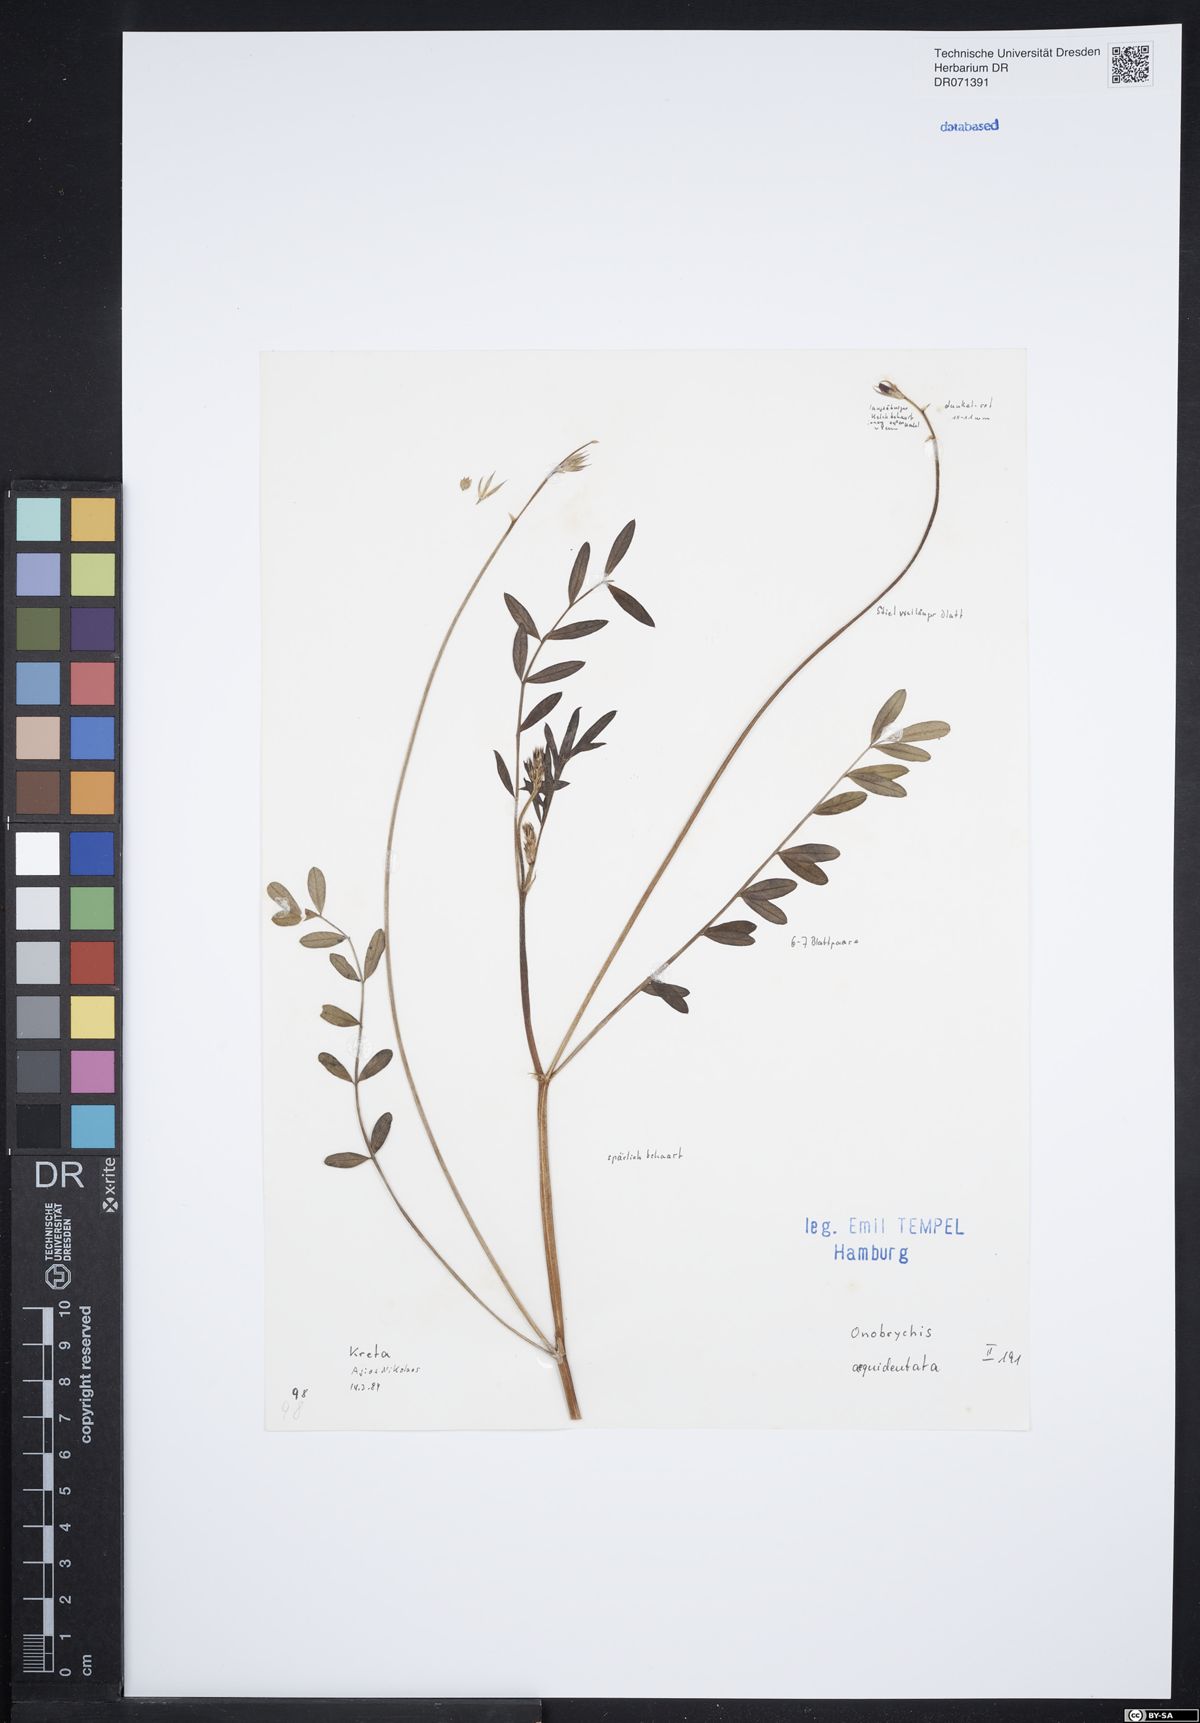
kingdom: Plantae
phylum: Tracheophyta
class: Magnoliopsida
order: Fabales
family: Fabaceae
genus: Onobrychis
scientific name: Onobrychis aequidentata
